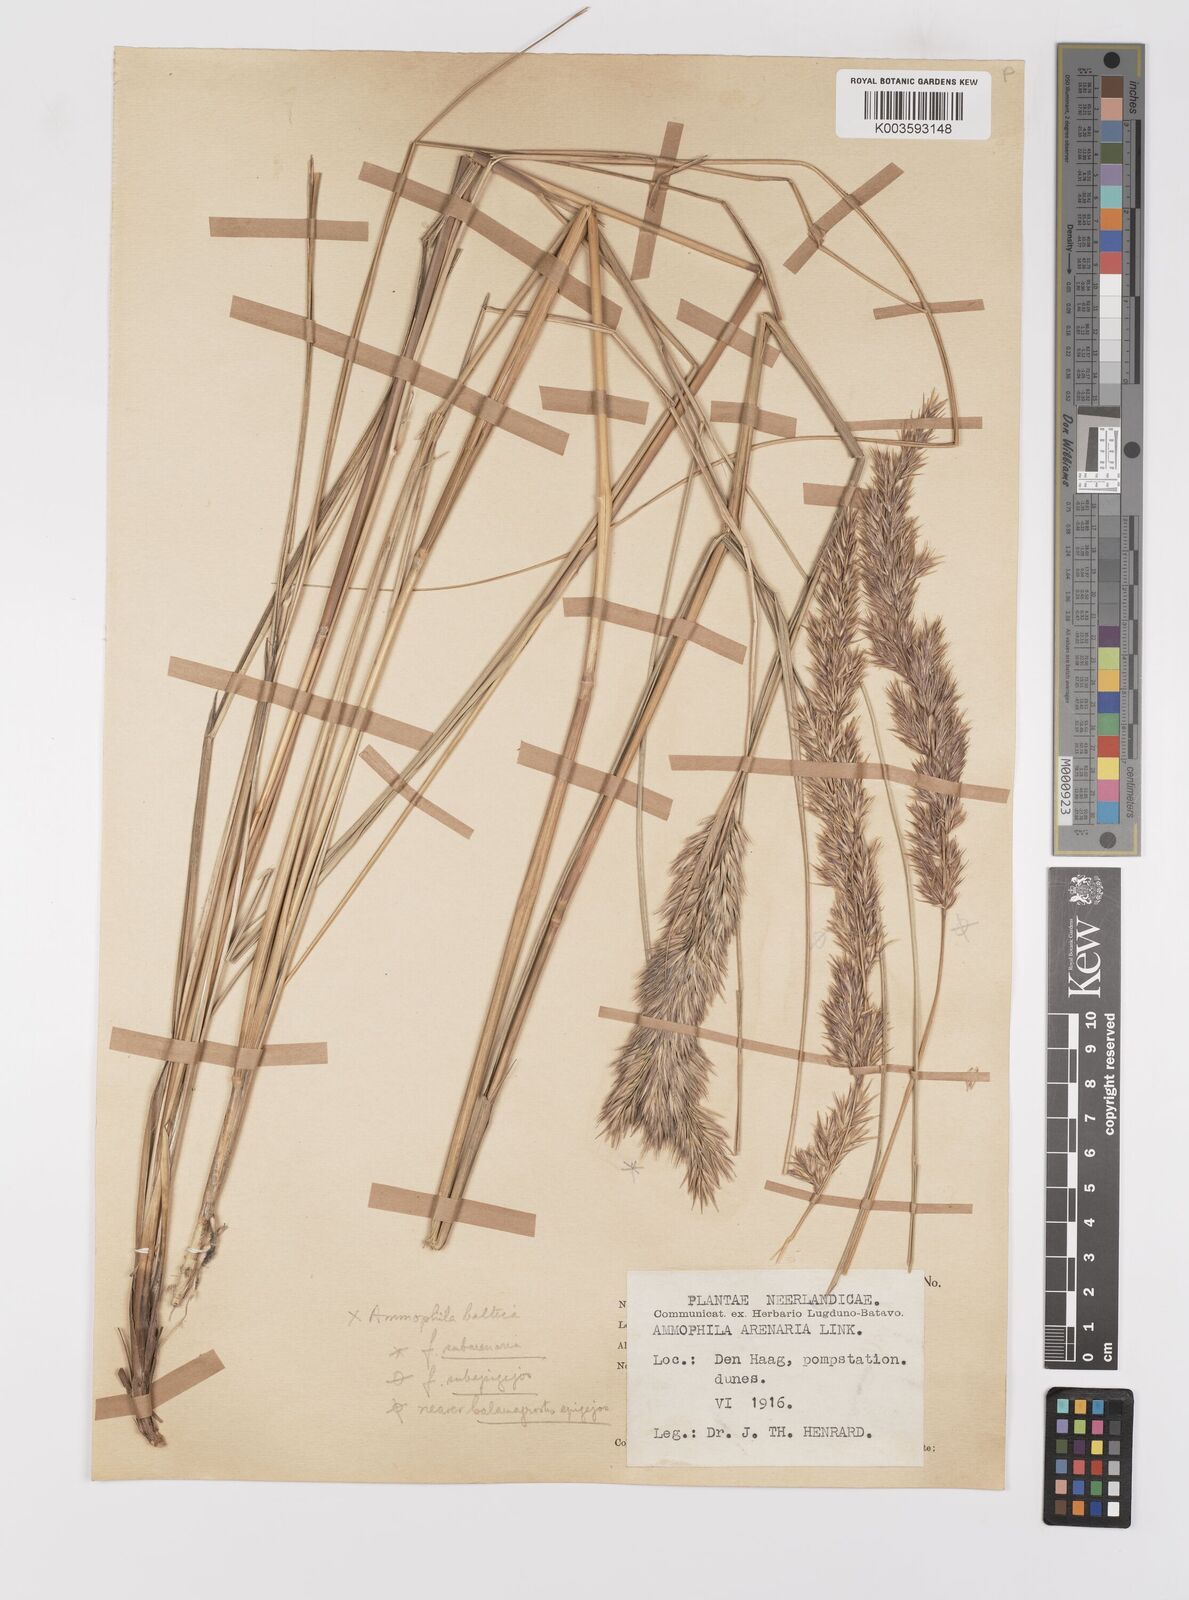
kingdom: Plantae
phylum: Tracheophyta
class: Liliopsida
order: Poales
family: Poaceae
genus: Calamagrostis
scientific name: Calamagrostis baltica
